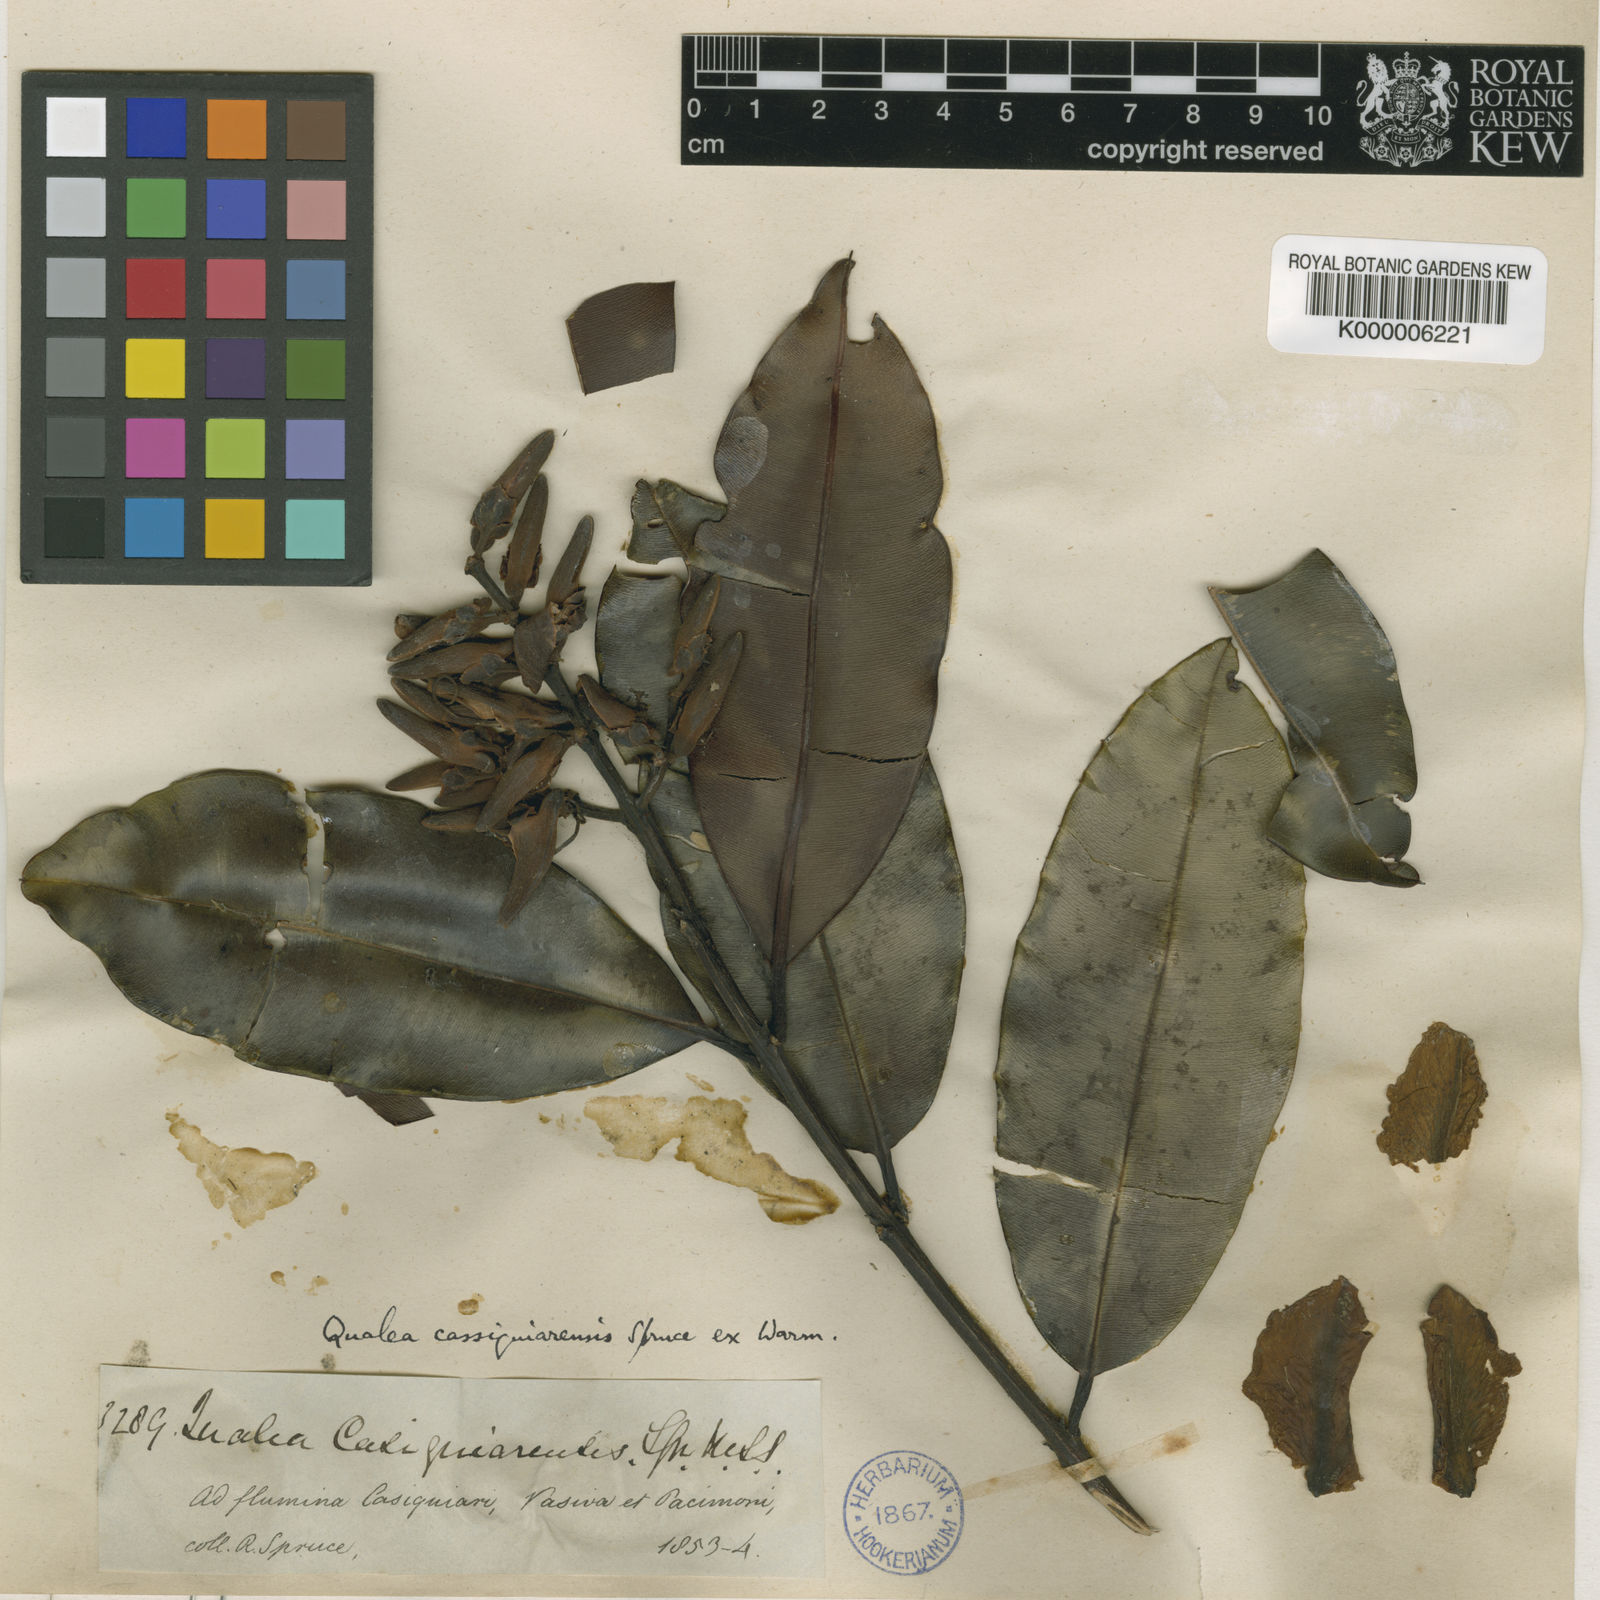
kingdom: Plantae
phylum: Tracheophyta
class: Magnoliopsida
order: Myrtales
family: Vochysiaceae
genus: Ruizterania
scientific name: Ruizterania cassiquiarensis
